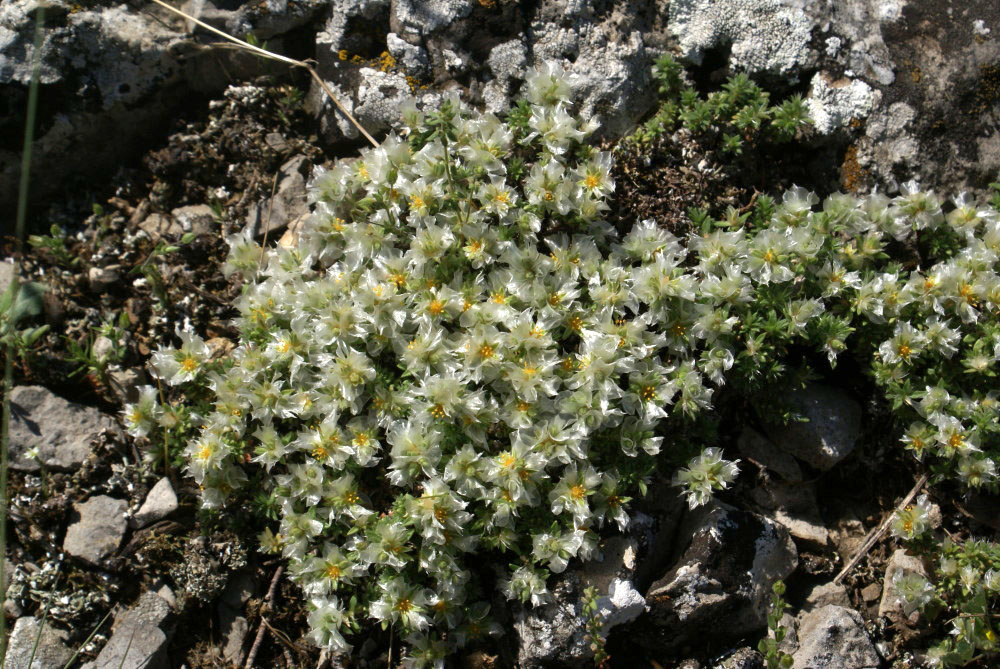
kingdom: Plantae
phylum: Tracheophyta
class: Magnoliopsida
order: Caryophyllales
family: Caryophyllaceae
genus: Paronychia
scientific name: Paronychia cephalotes
